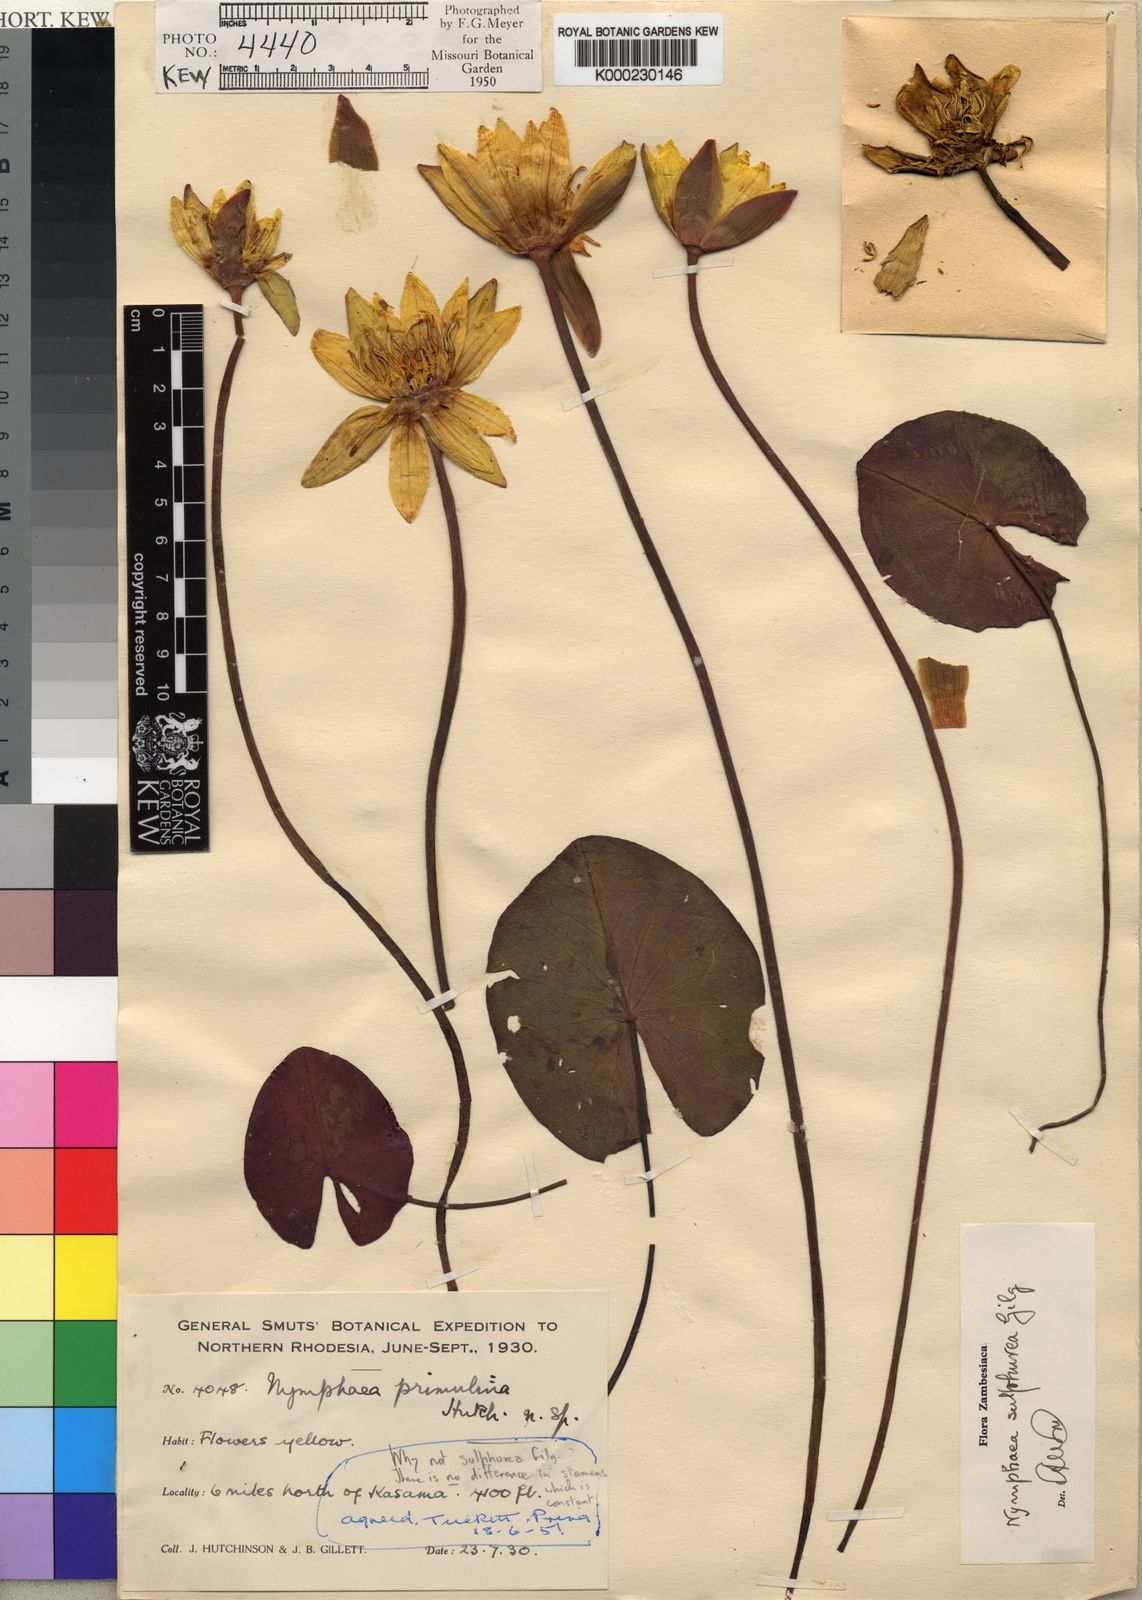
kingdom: Plantae
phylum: Tracheophyta
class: Magnoliopsida
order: Nymphaeales
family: Nymphaeaceae
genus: Nymphaea
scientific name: Nymphaea sulphurea
